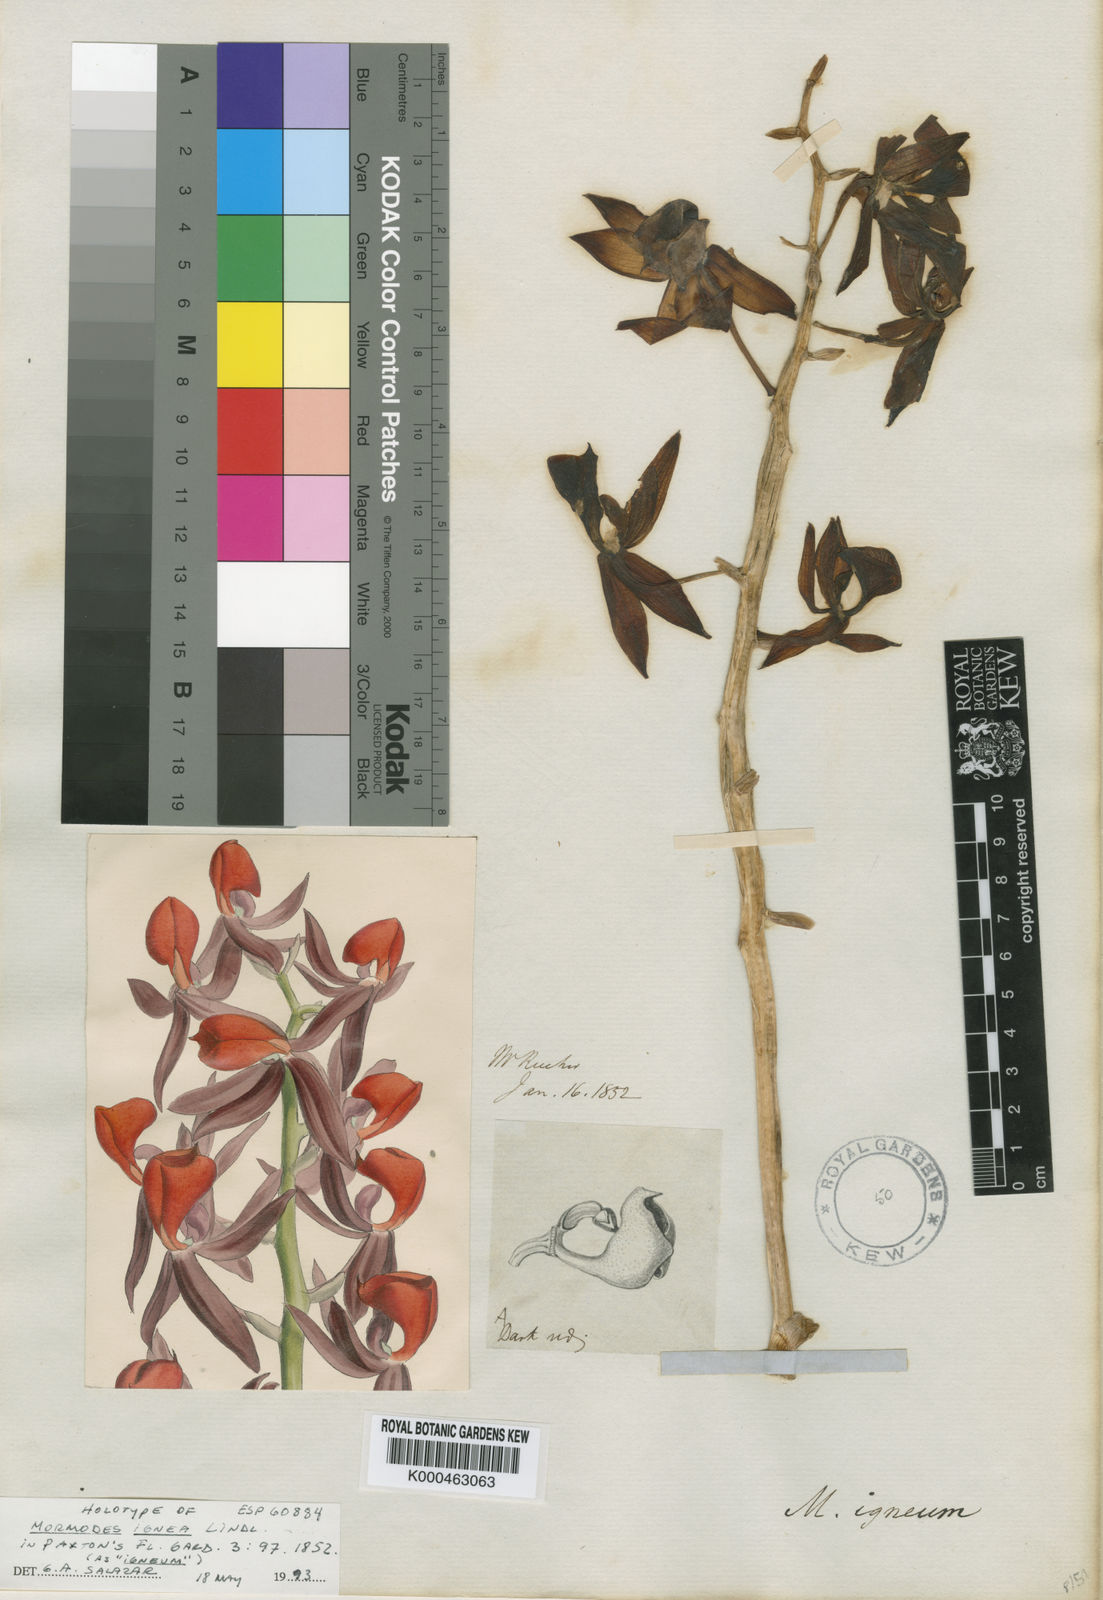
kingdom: Plantae
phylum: Tracheophyta
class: Liliopsida
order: Asparagales
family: Orchidaceae
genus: Mormodes
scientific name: Mormodes ignea
